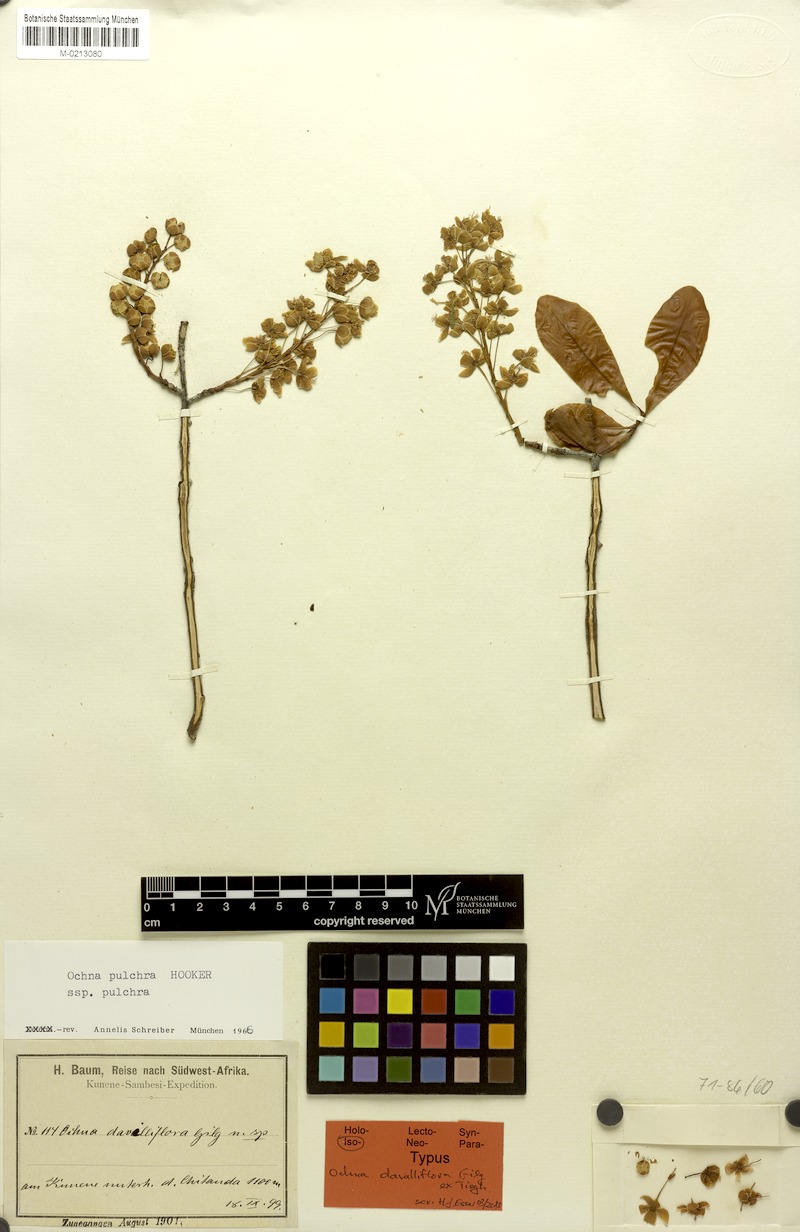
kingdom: Plantae
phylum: Tracheophyta
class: Magnoliopsida
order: Malpighiales
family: Ochnaceae
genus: Ochna
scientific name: Ochna pulchra
